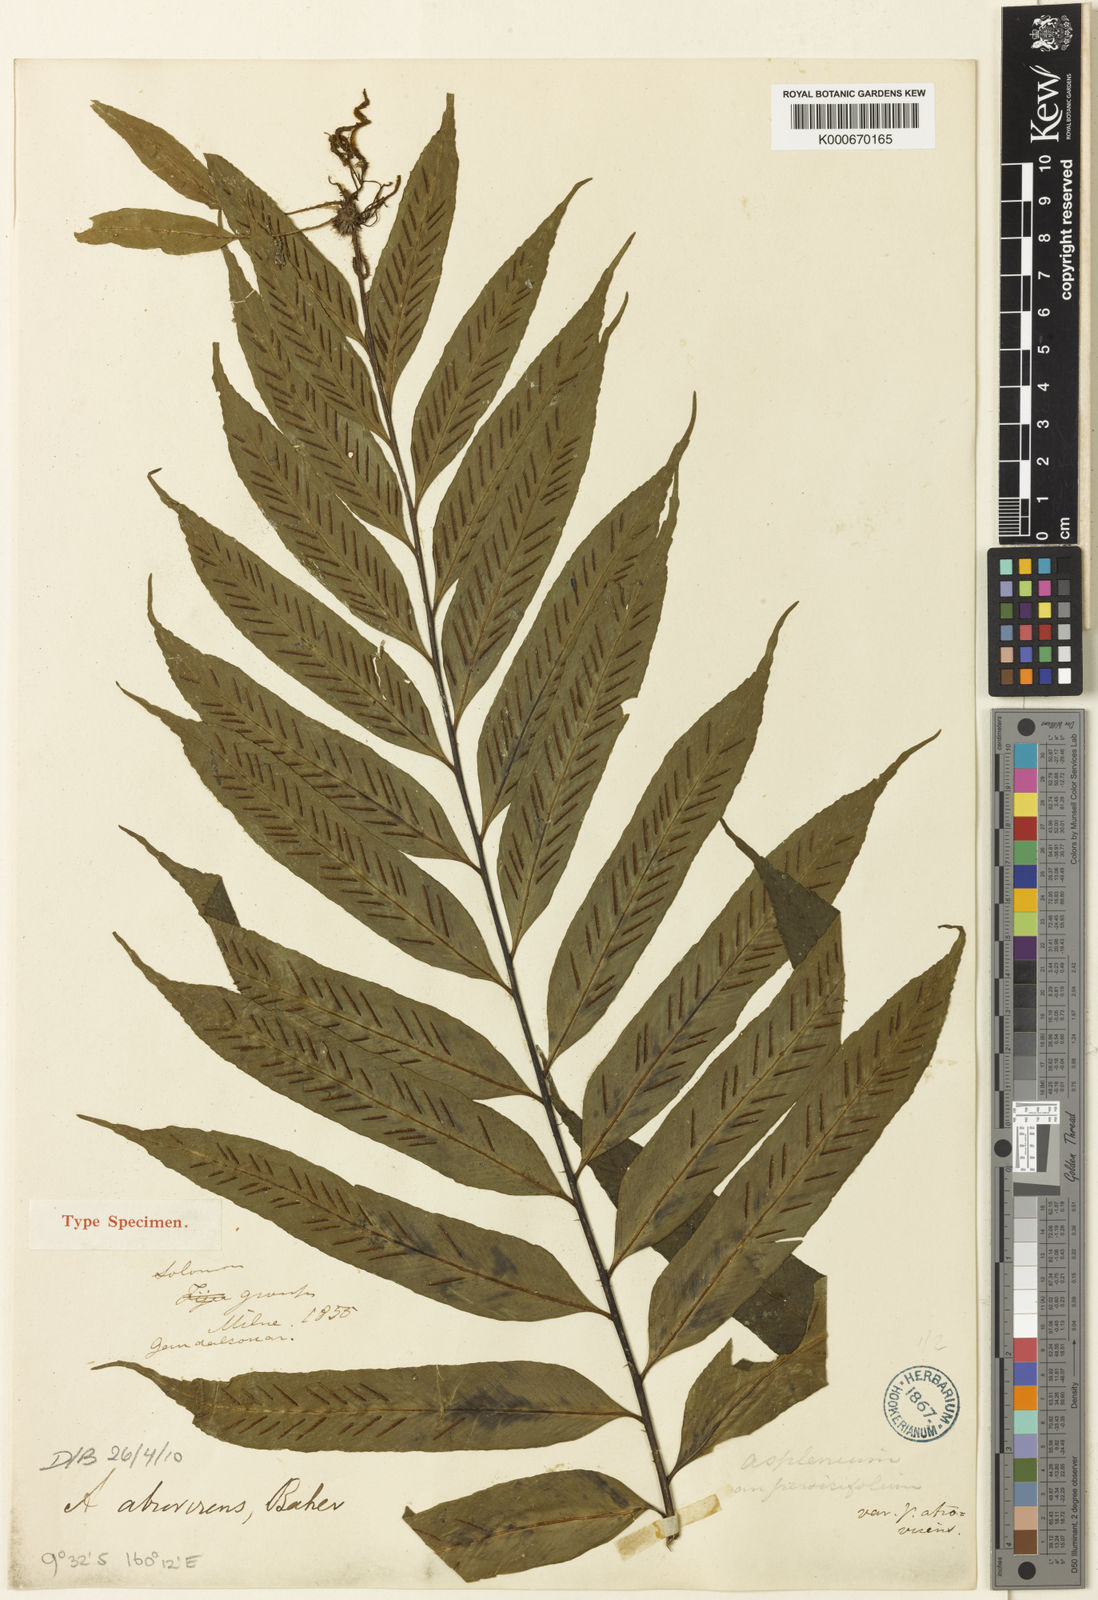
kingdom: Plantae
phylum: Tracheophyta
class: Polypodiopsida
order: Polypodiales
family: Aspleniaceae
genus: Asplenium
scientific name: Asplenium atrovirens
